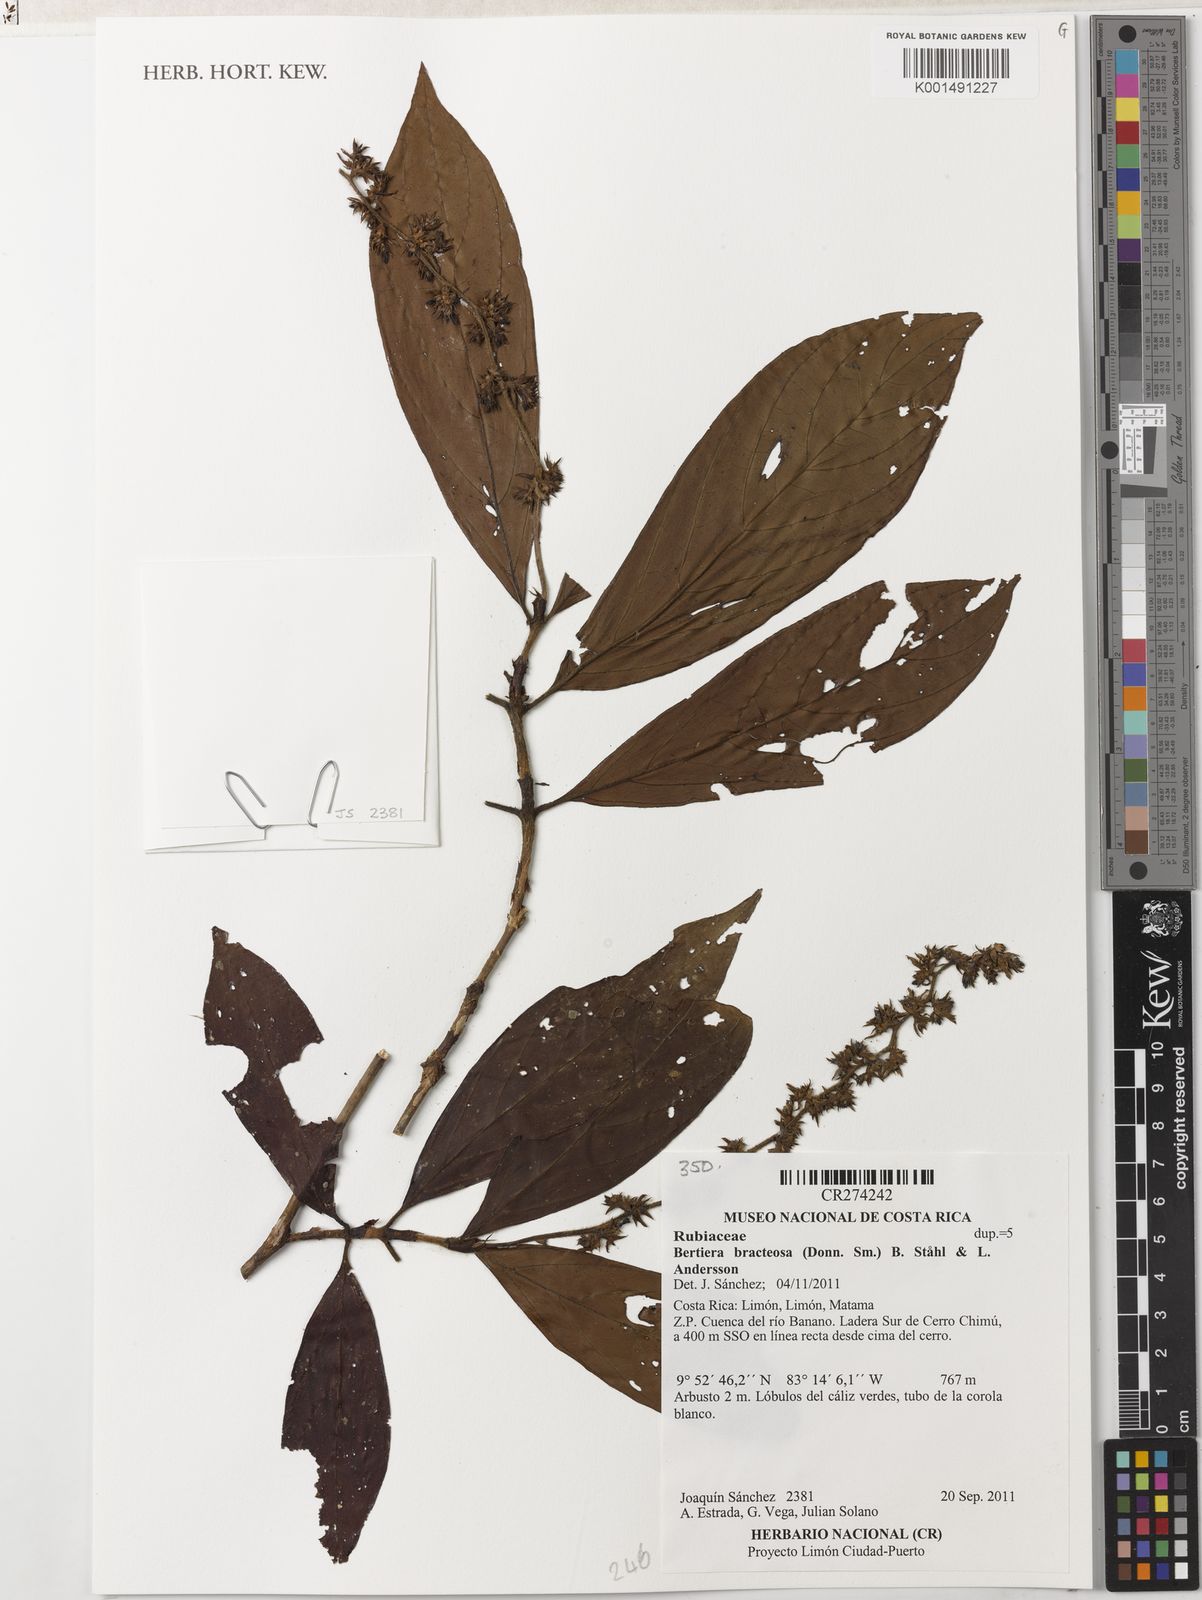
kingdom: Plantae
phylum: Tracheophyta
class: Magnoliopsida
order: Gentianales
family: Rubiaceae
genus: Bertiera
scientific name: Bertiera bracteosa
